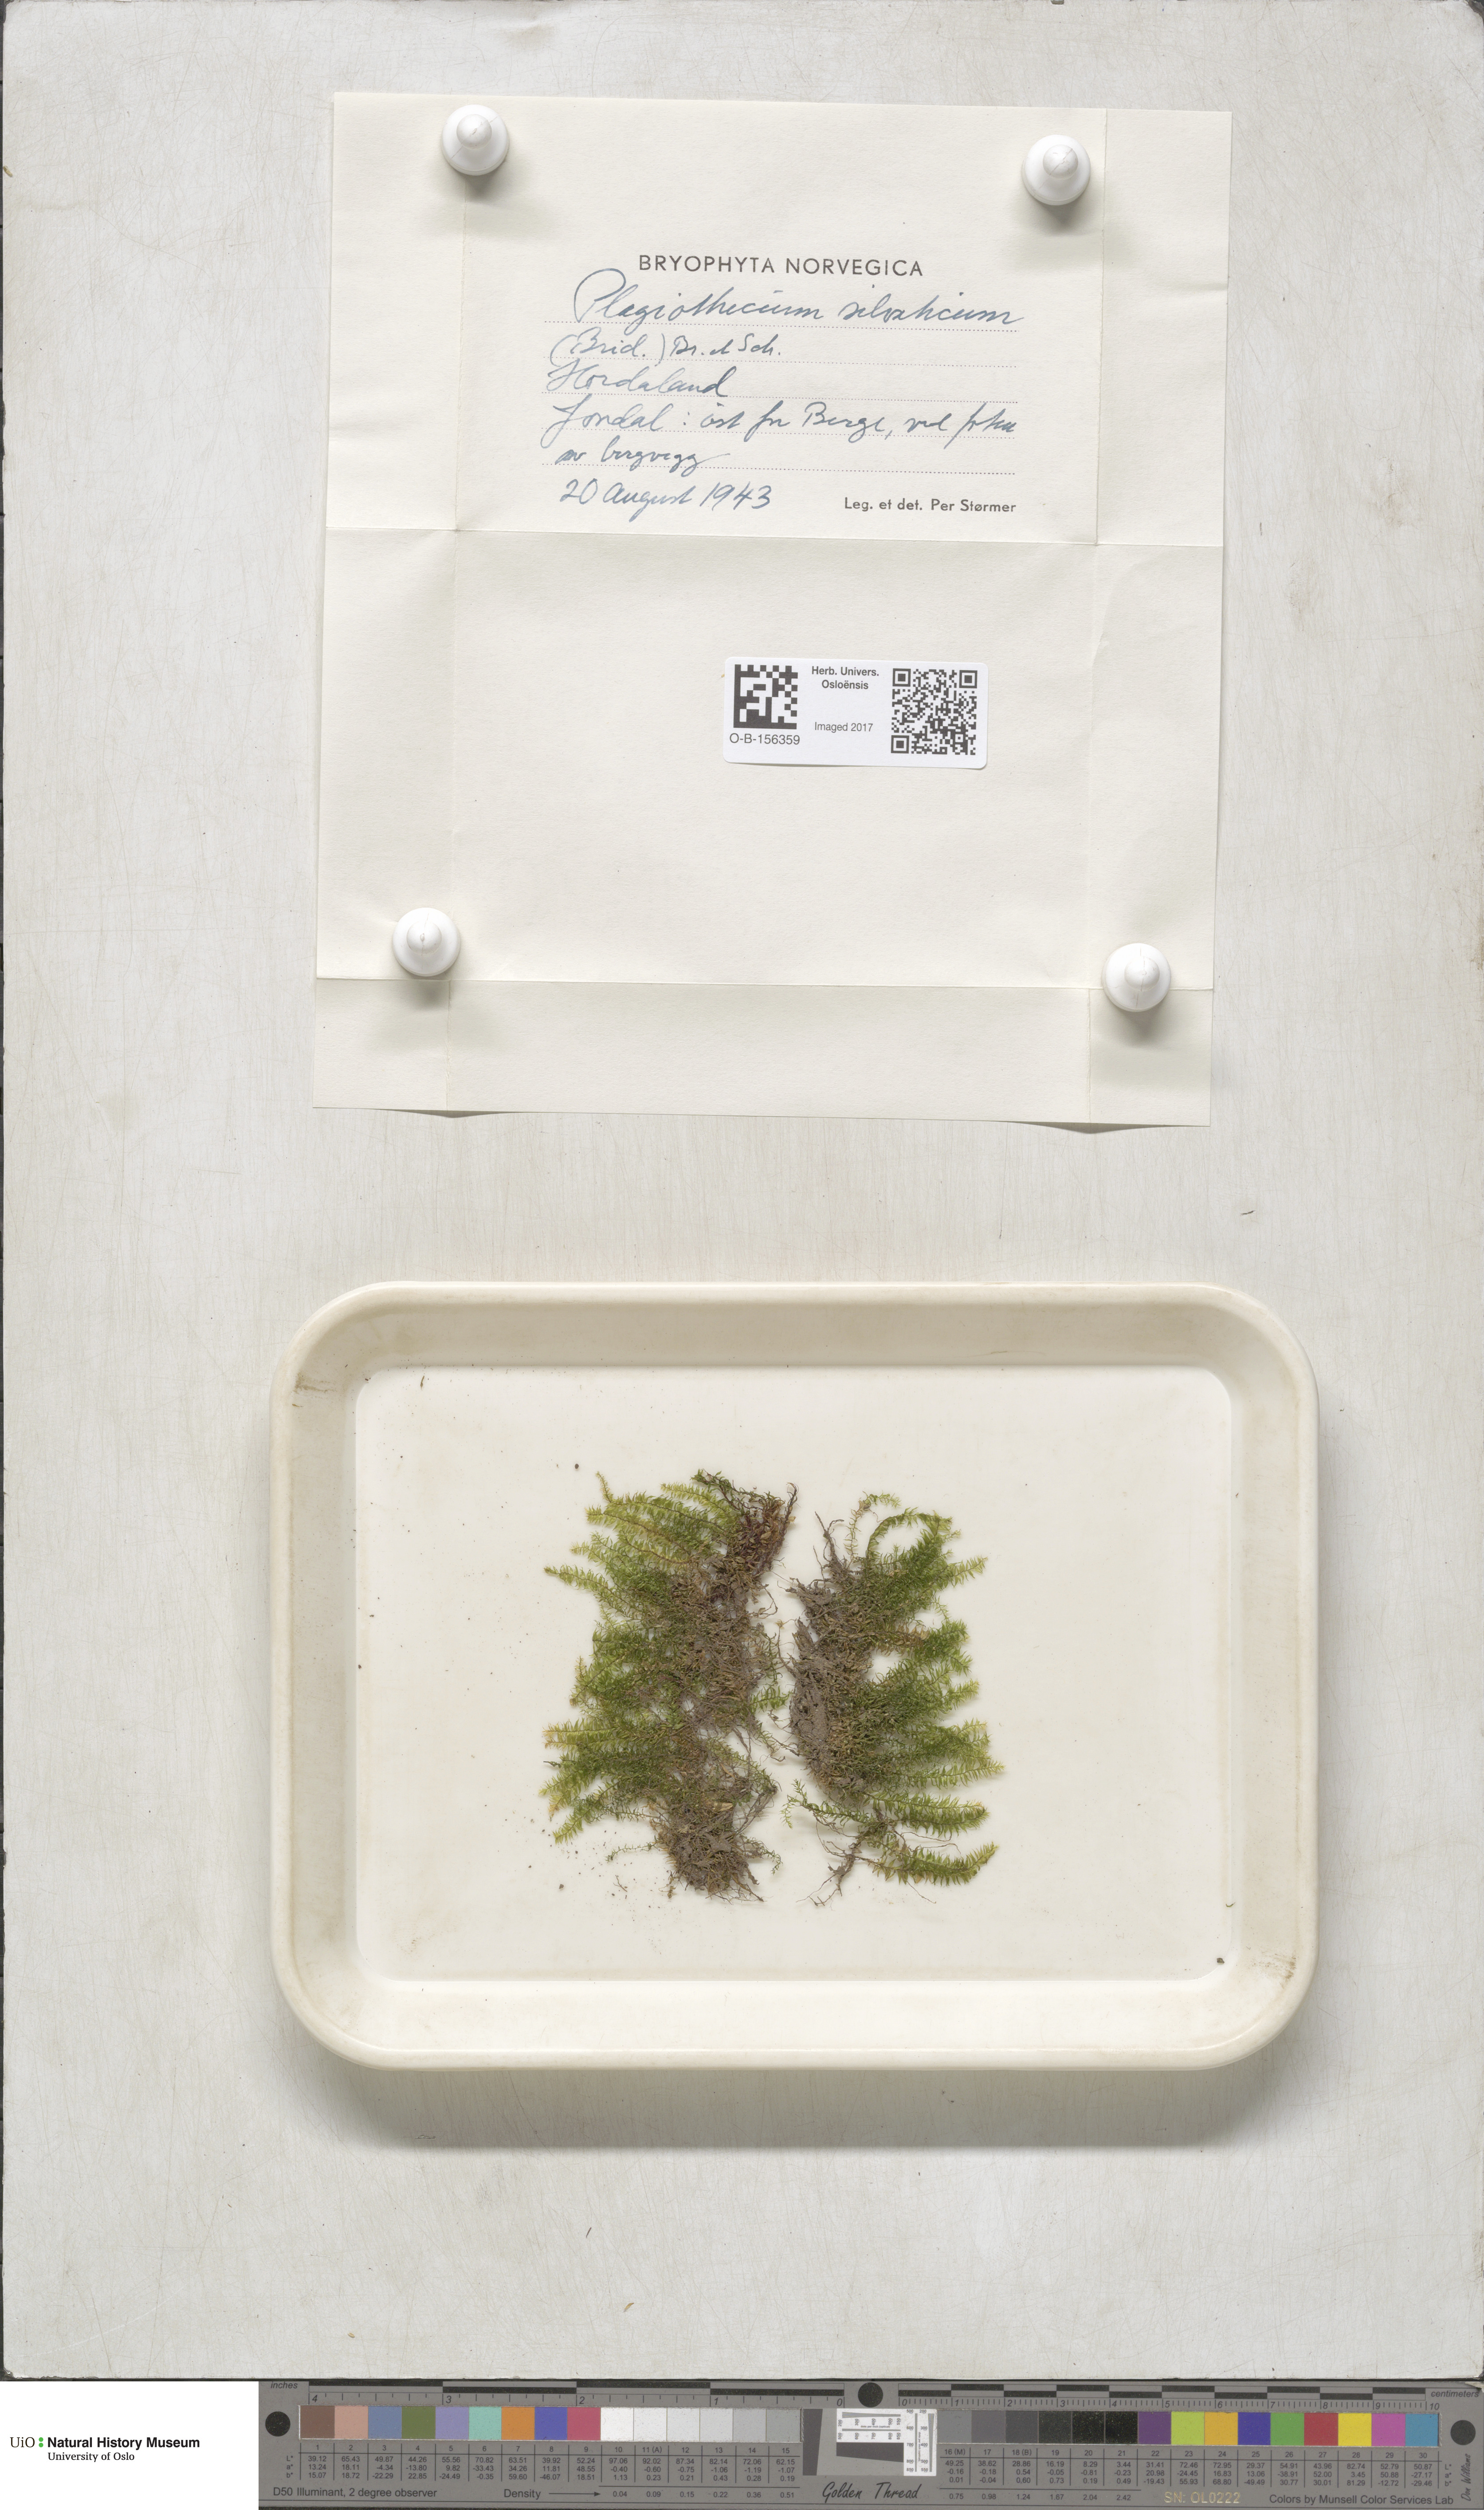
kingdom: Plantae
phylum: Bryophyta
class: Bryopsida
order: Hypnales
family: Plagiotheciaceae
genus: Plagiothecium
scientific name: Plagiothecium nemorale
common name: Woodsy silk-moss
